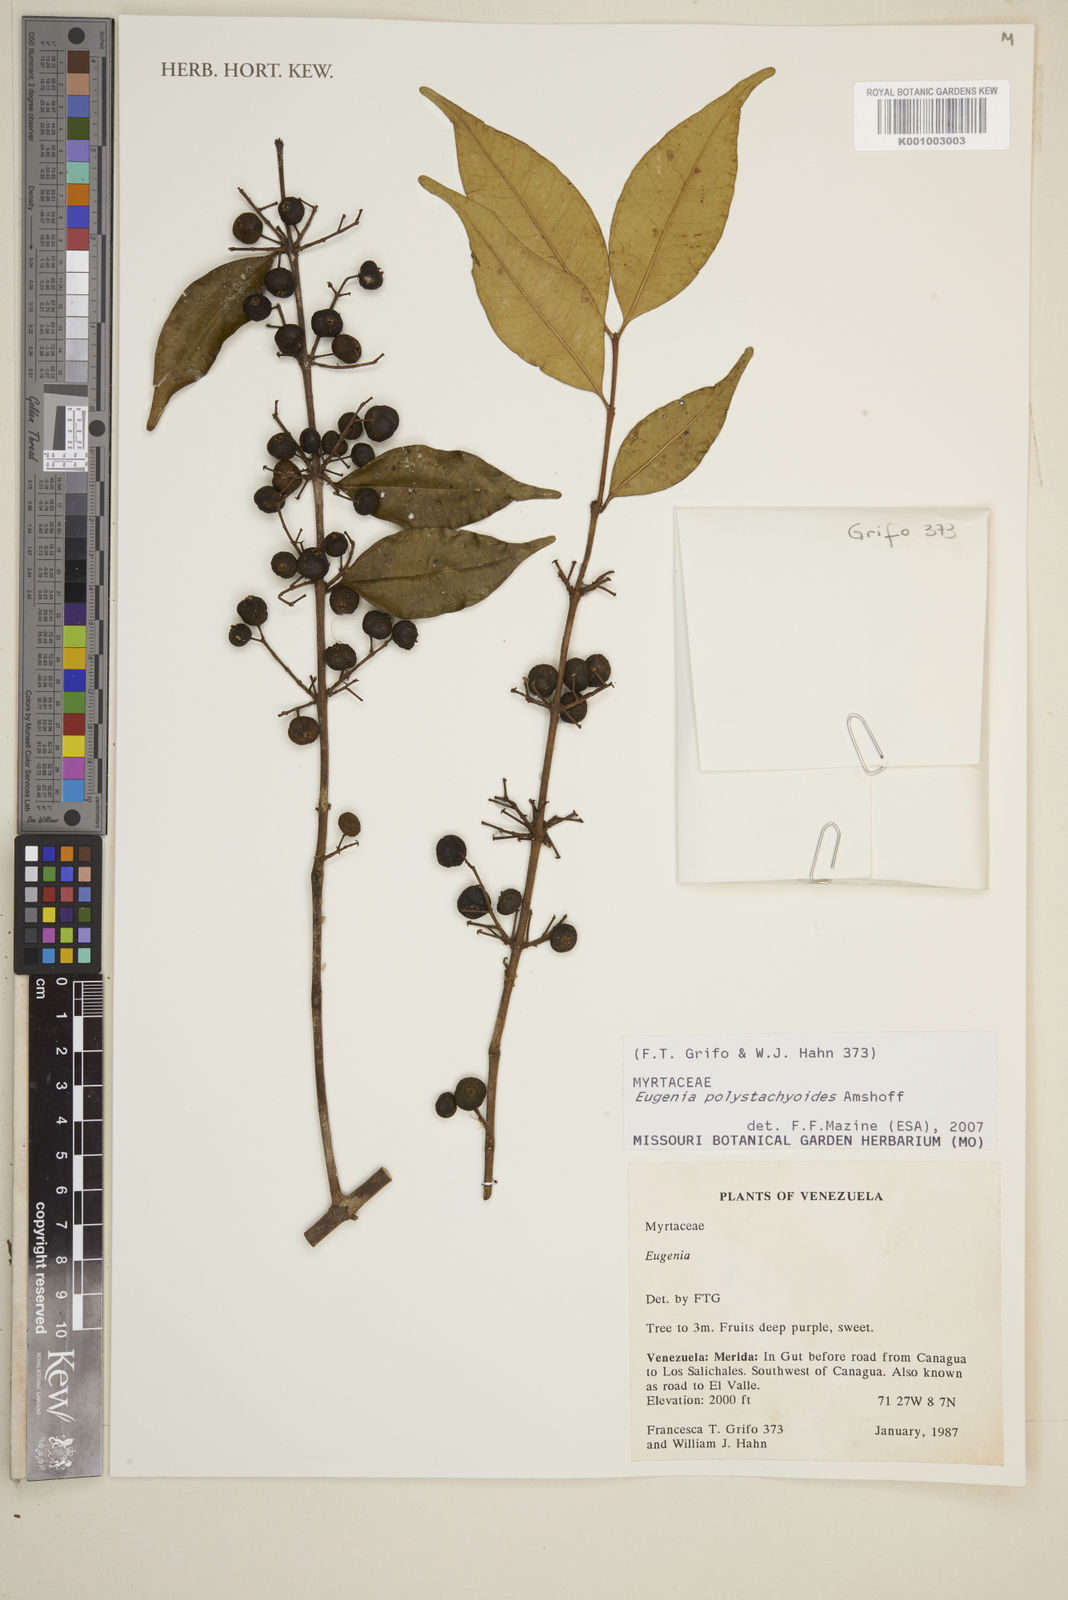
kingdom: Plantae
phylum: Tracheophyta
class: Magnoliopsida
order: Myrtales
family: Myrtaceae
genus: Eugenia
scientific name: Eugenia limbosa
